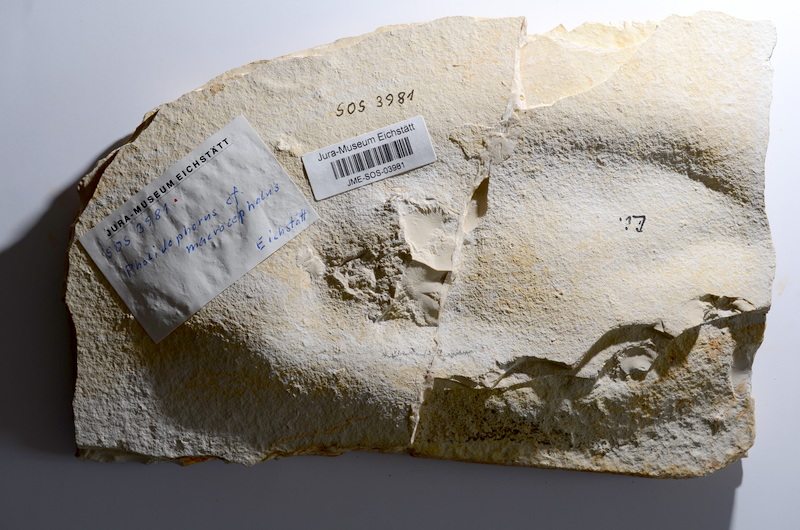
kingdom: Animalia
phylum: Chordata
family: Ankylophoridae
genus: Siemensichthys
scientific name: Siemensichthys macrocephalus
